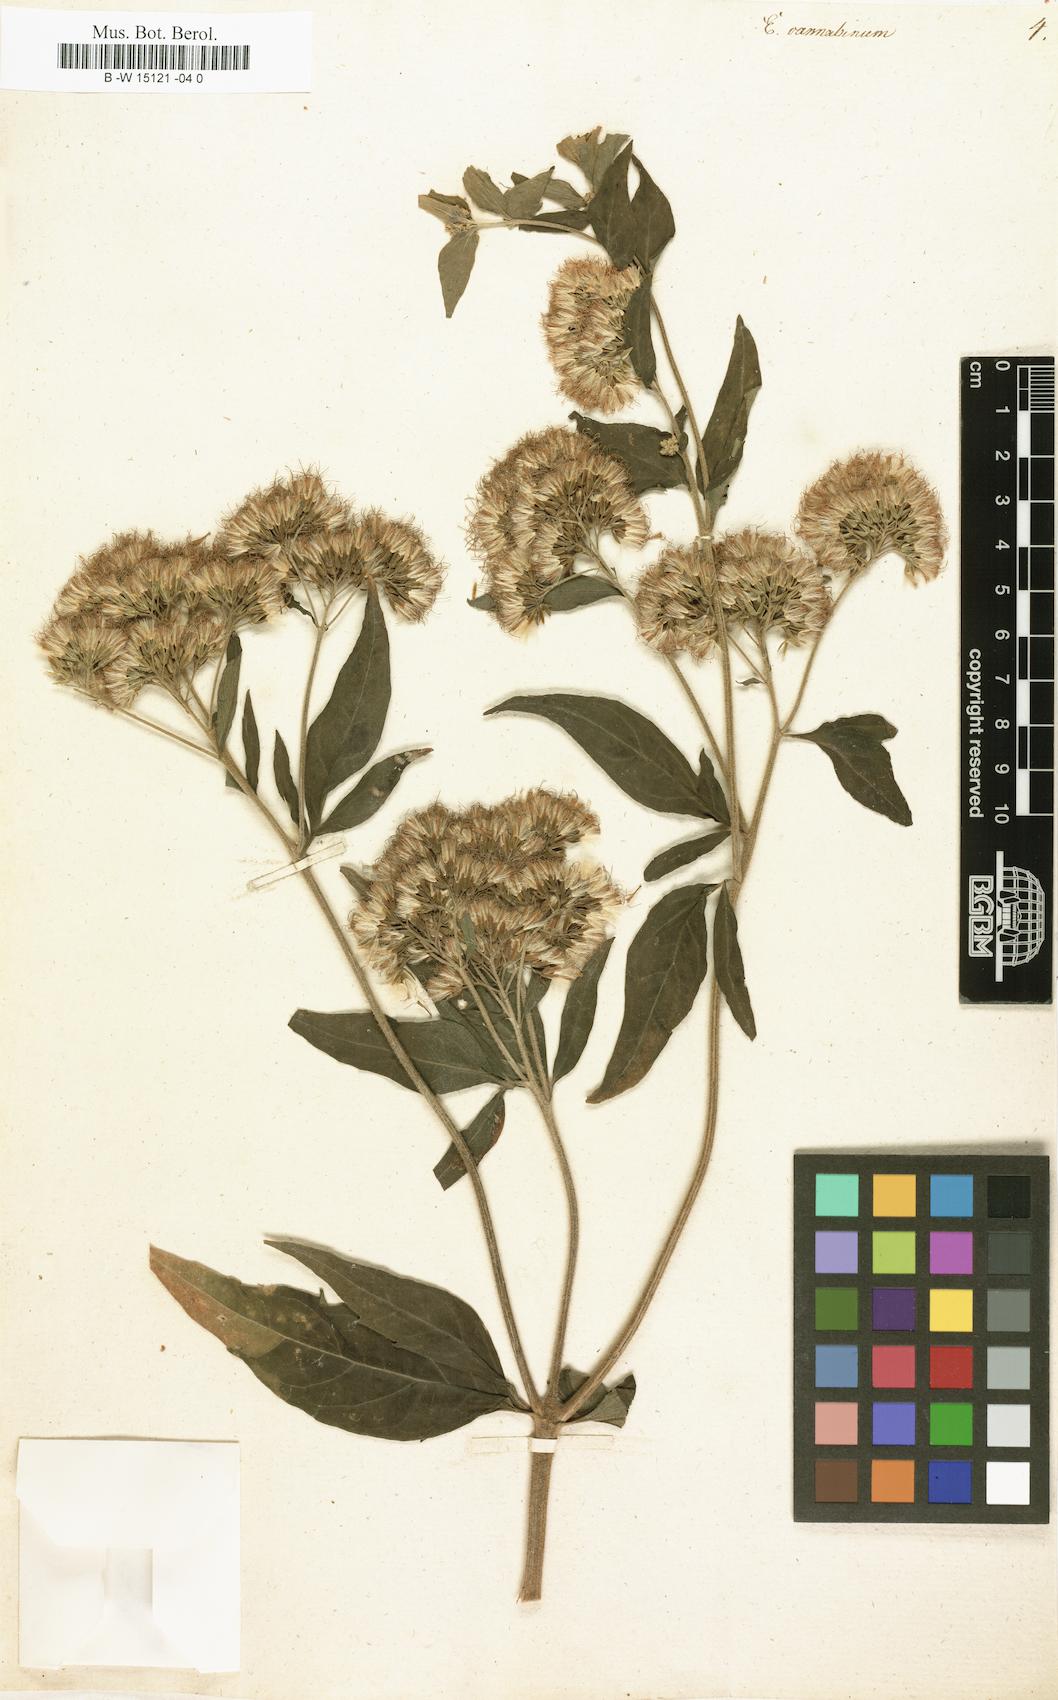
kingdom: Plantae
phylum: Tracheophyta
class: Magnoliopsida
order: Asterales
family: Asteraceae
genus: Eupatorium
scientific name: Eupatorium cannabinum
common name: Hemp-agrimony
